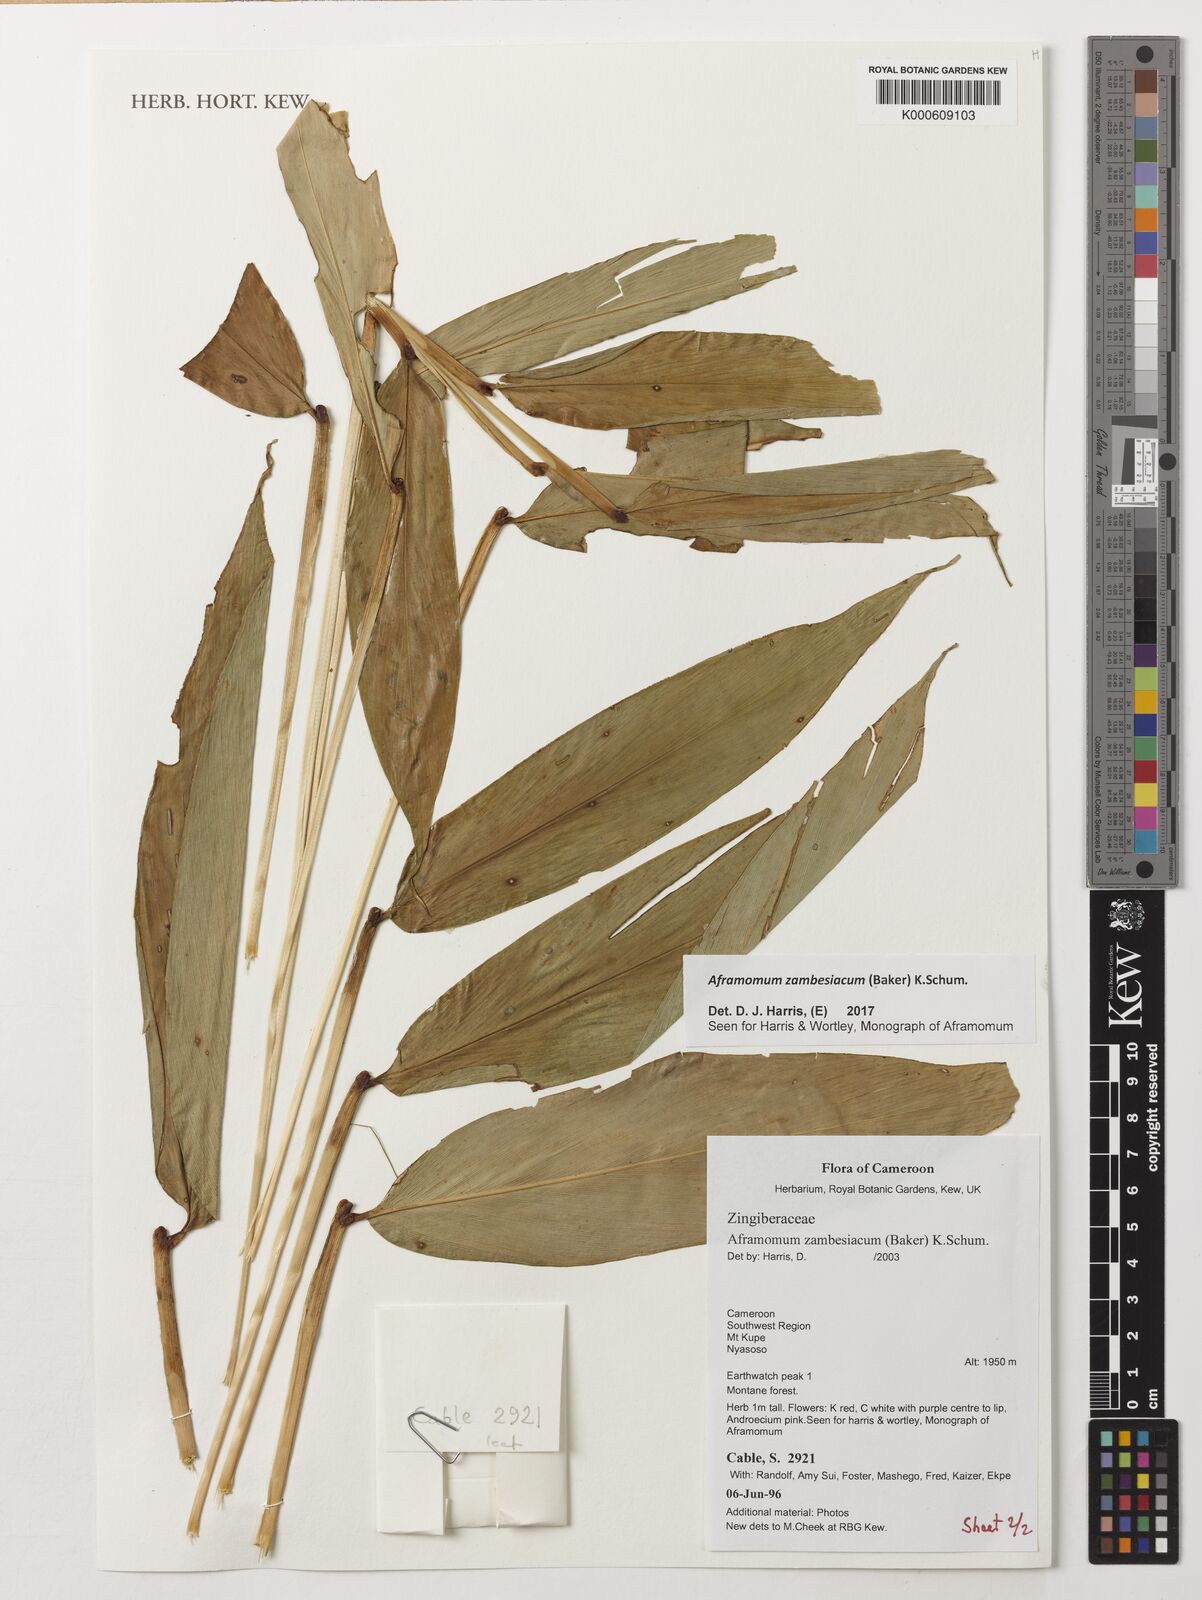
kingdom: Plantae
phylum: Tracheophyta
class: Liliopsida
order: Zingiberales
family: Zingiberaceae
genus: Aframomum
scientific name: Aframomum zambesiacum
